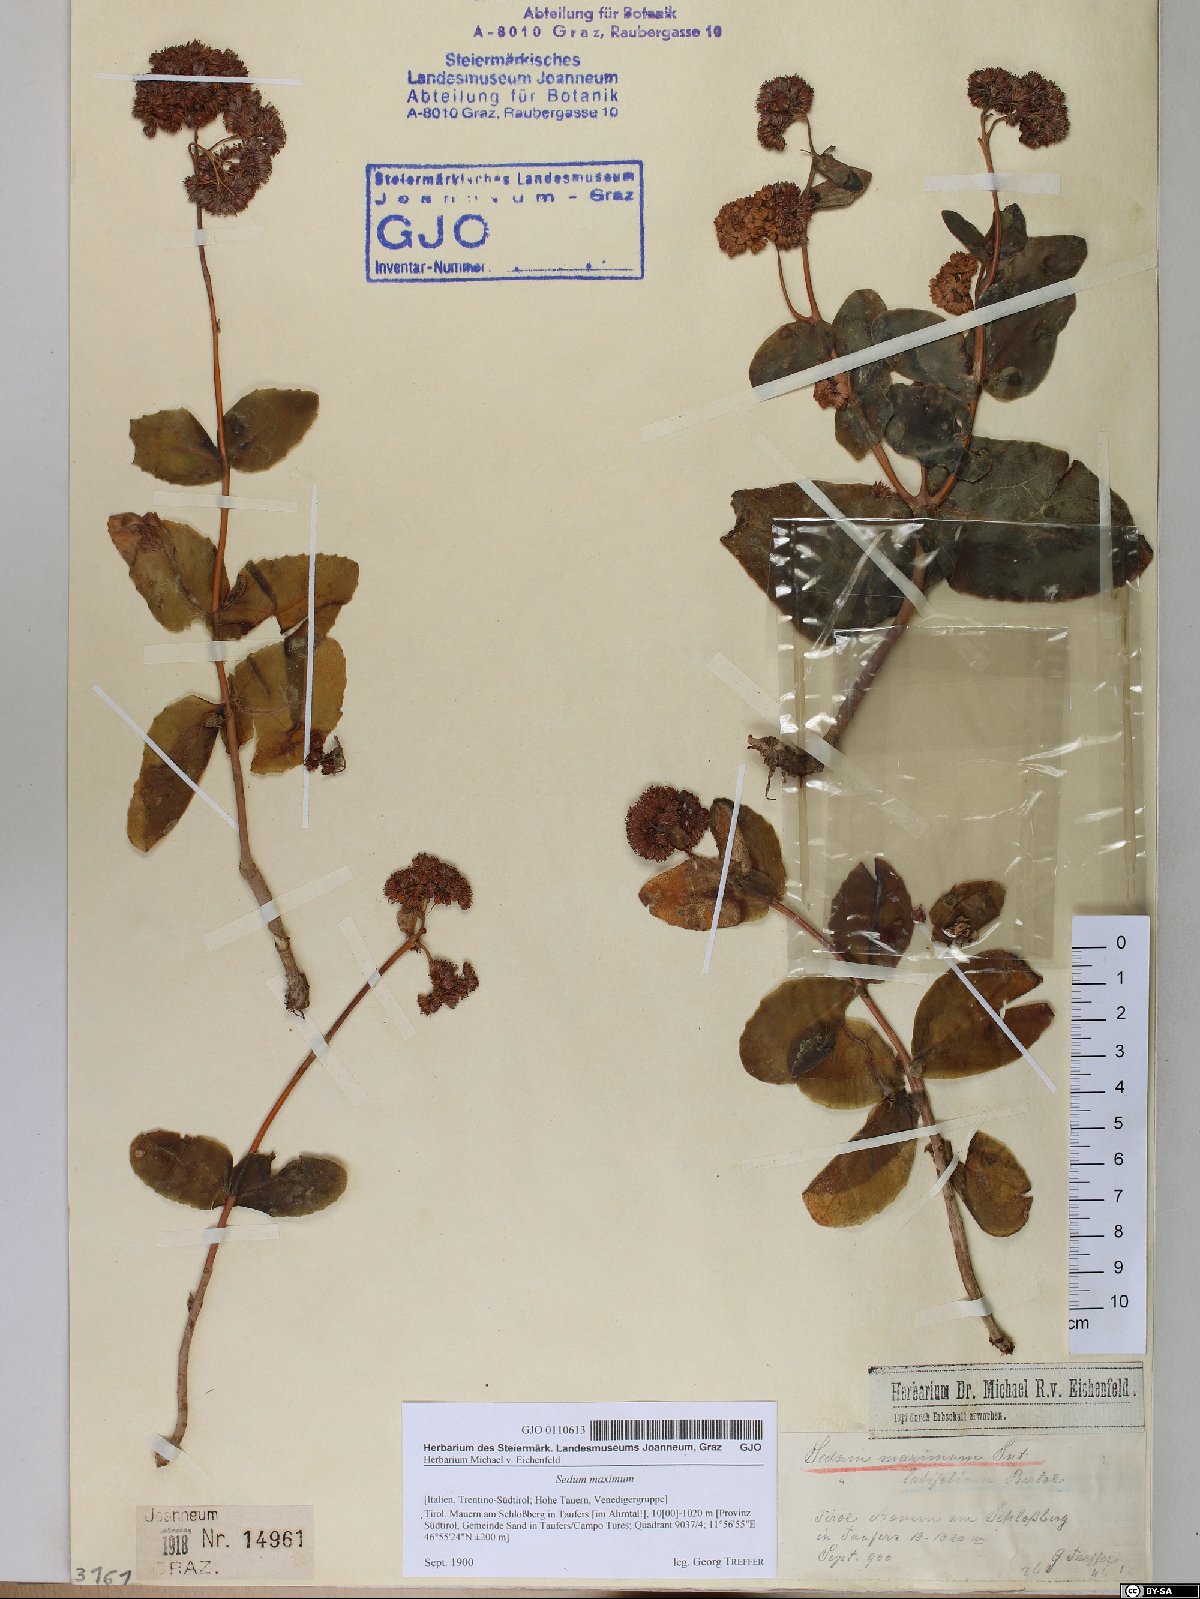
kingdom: Plantae
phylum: Tracheophyta
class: Magnoliopsida
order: Saxifragales
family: Crassulaceae
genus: Hylotelephium
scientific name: Hylotelephium maximum
